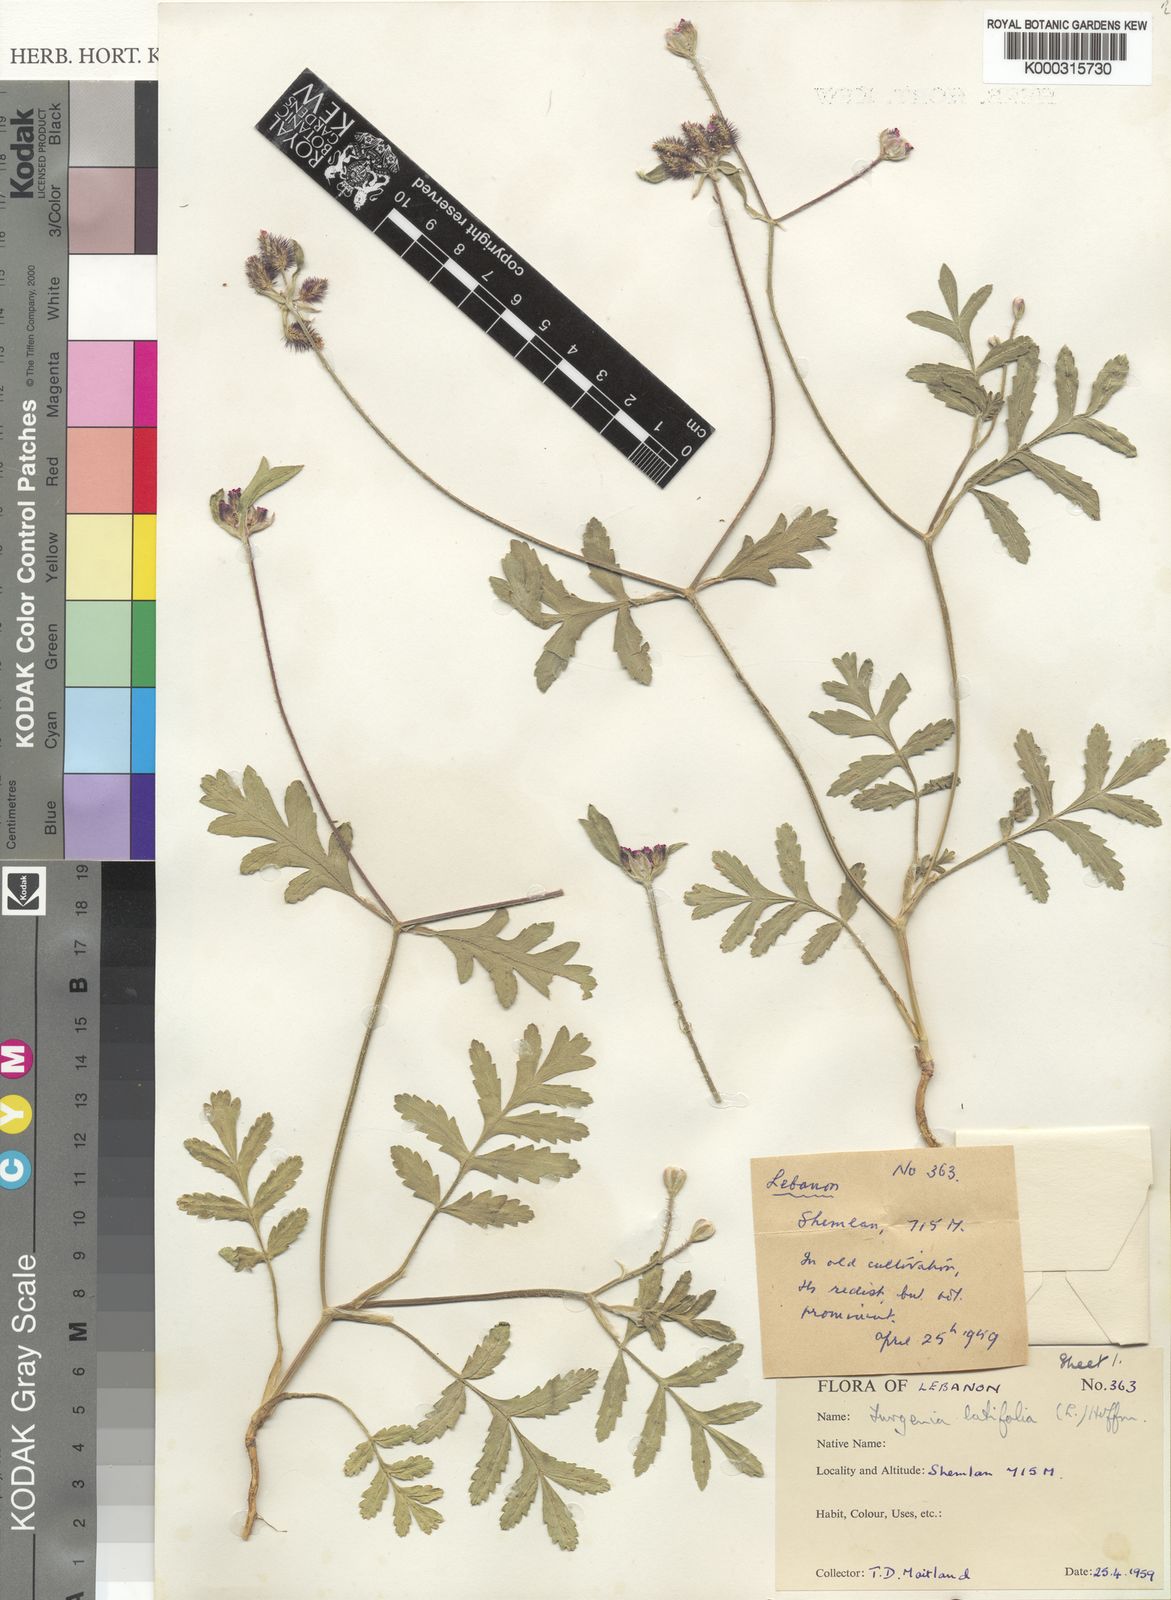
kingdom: Plantae
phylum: Tracheophyta
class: Magnoliopsida
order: Apiales
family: Apiaceae
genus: Turgenia
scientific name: Turgenia latifolia
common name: Greater bur-parsley
